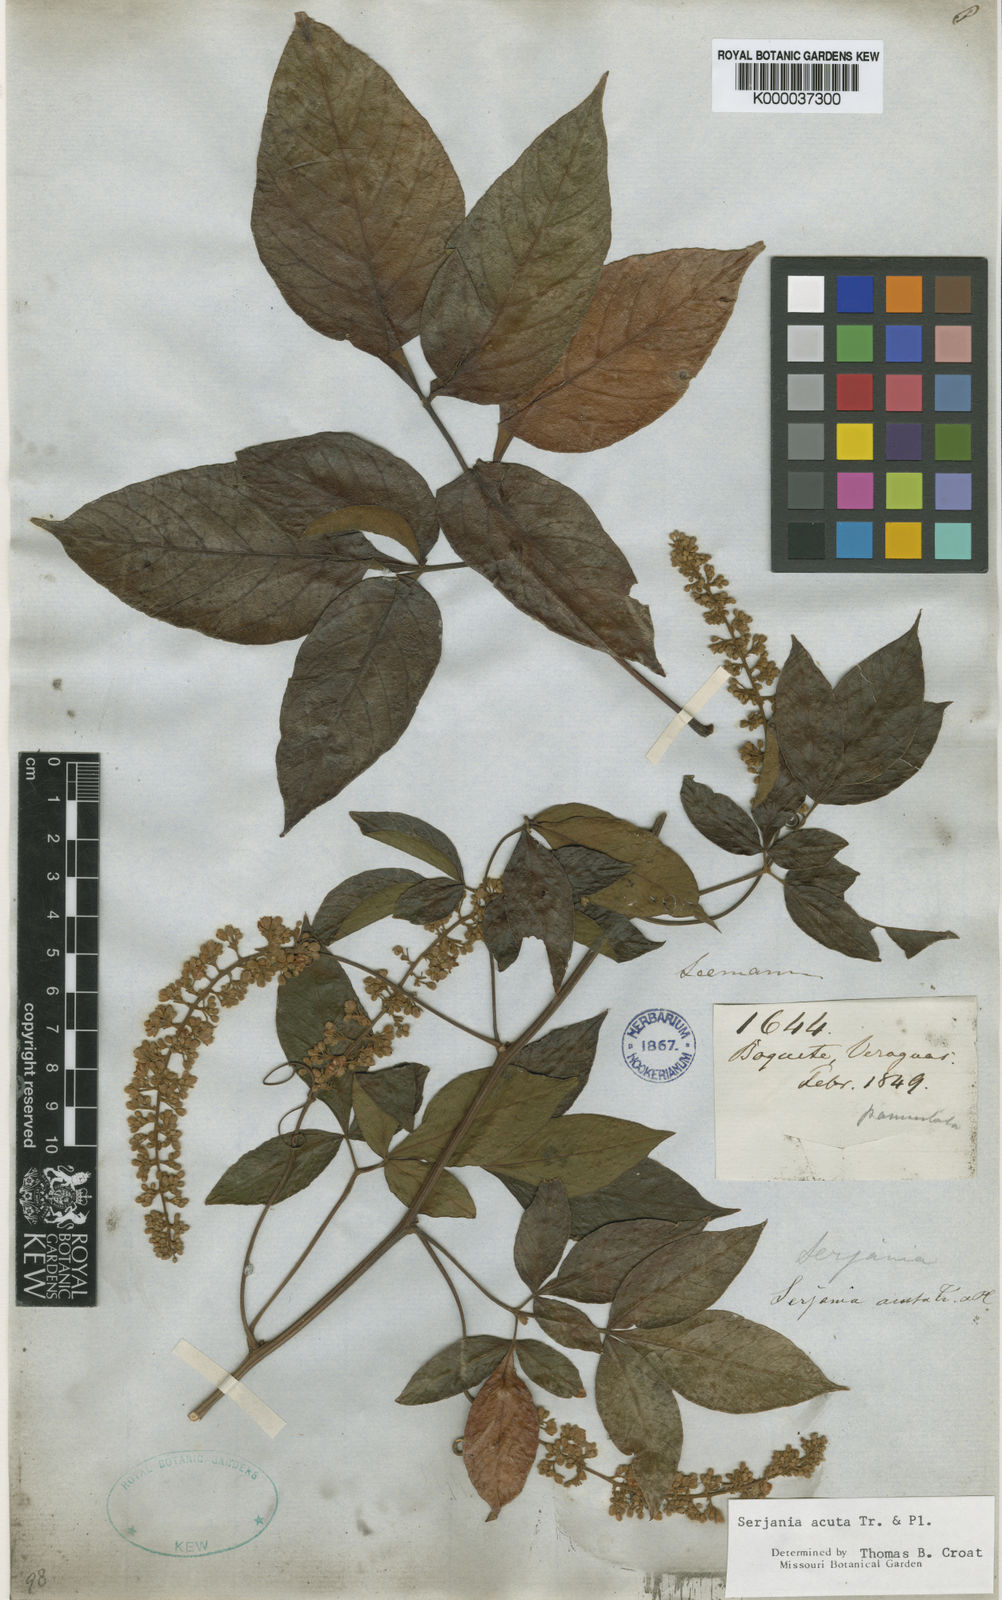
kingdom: Plantae
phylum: Tracheophyta
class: Magnoliopsida
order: Sapindales
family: Sapindaceae
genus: Serjania
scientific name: Serjania acuta
